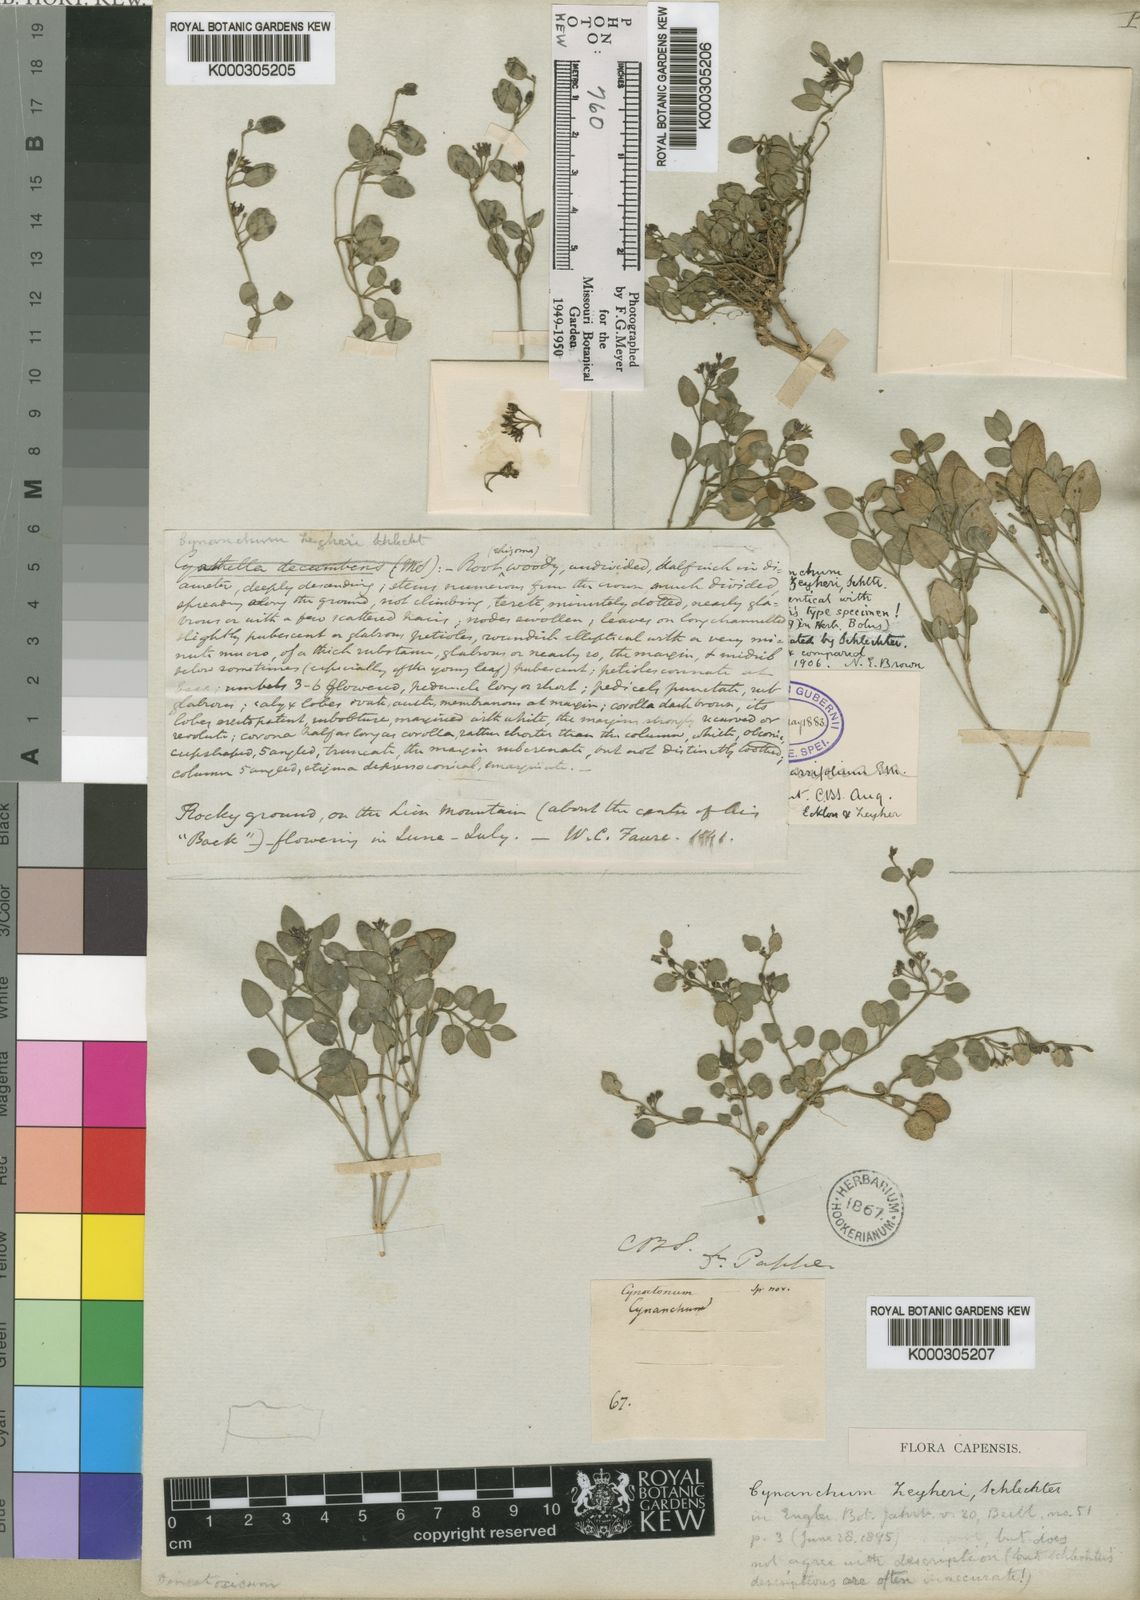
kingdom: Plantae
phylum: Tracheophyta
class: Magnoliopsida
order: Gentianales
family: Apocynaceae
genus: Cynanchum
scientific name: Cynanchum zeyheri
